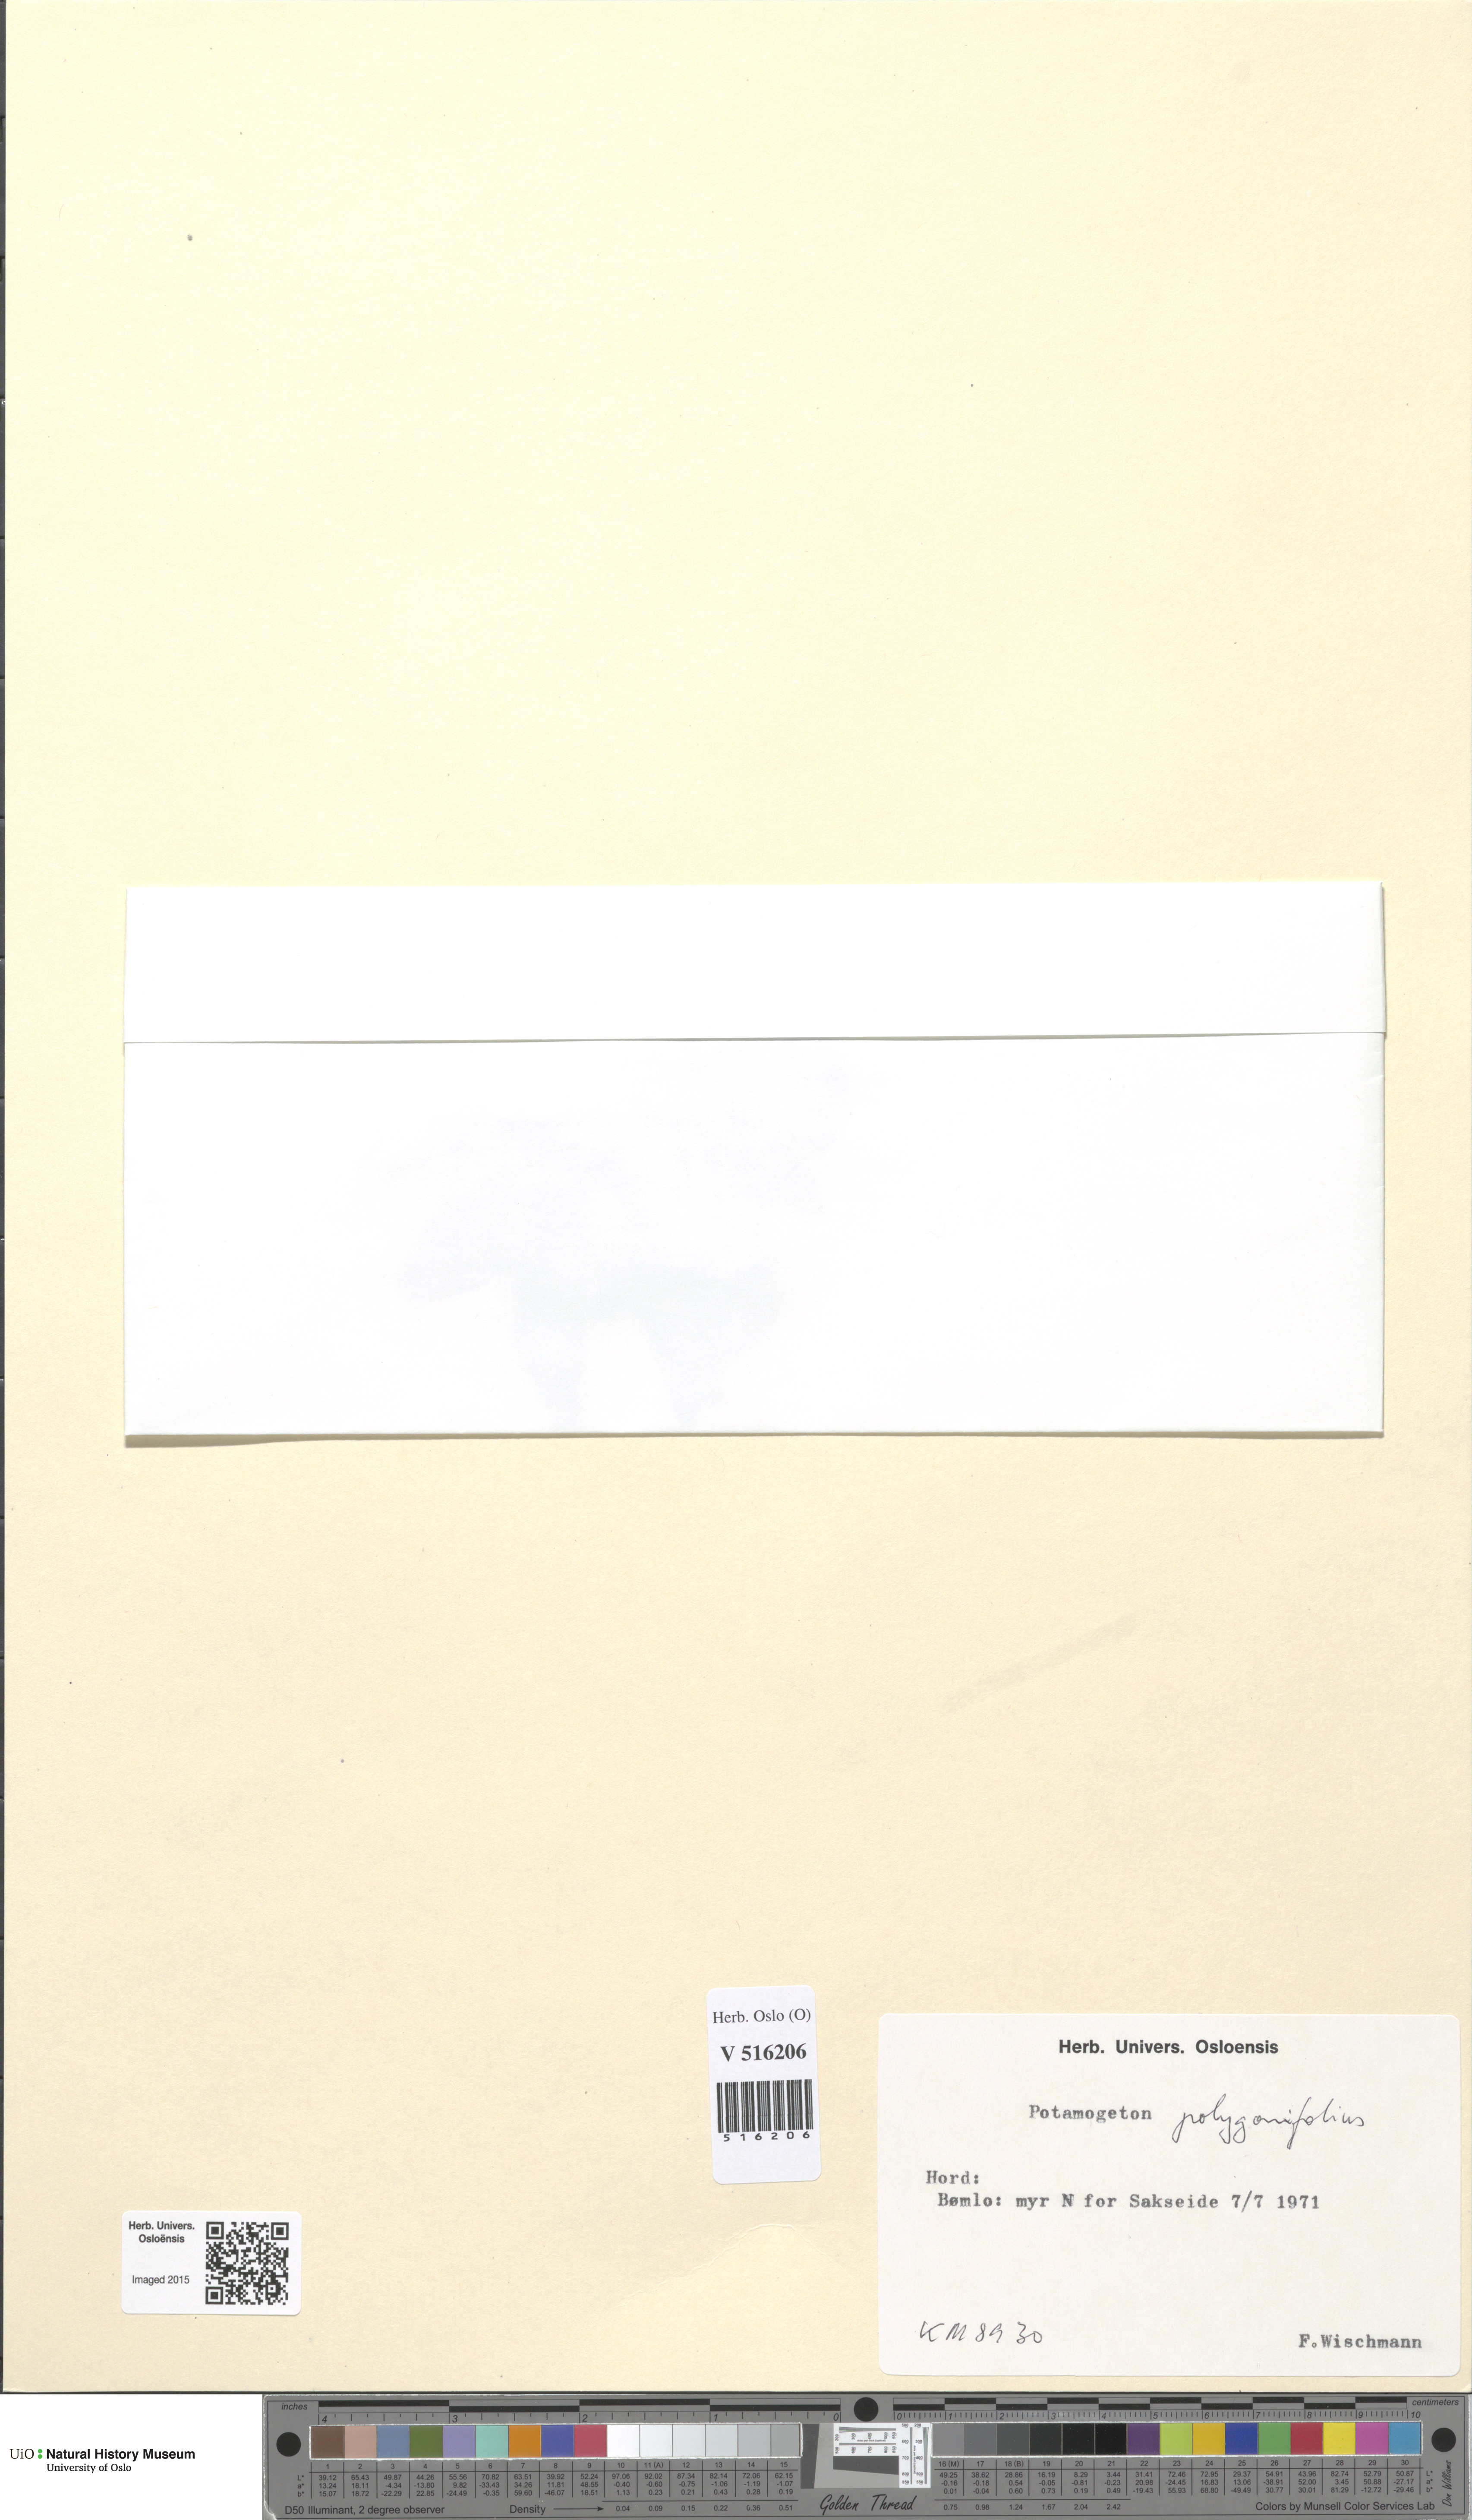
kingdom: Plantae
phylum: Tracheophyta
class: Liliopsida
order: Alismatales
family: Potamogetonaceae
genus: Potamogeton
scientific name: Potamogeton polygonifolius
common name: Bog pondweed
